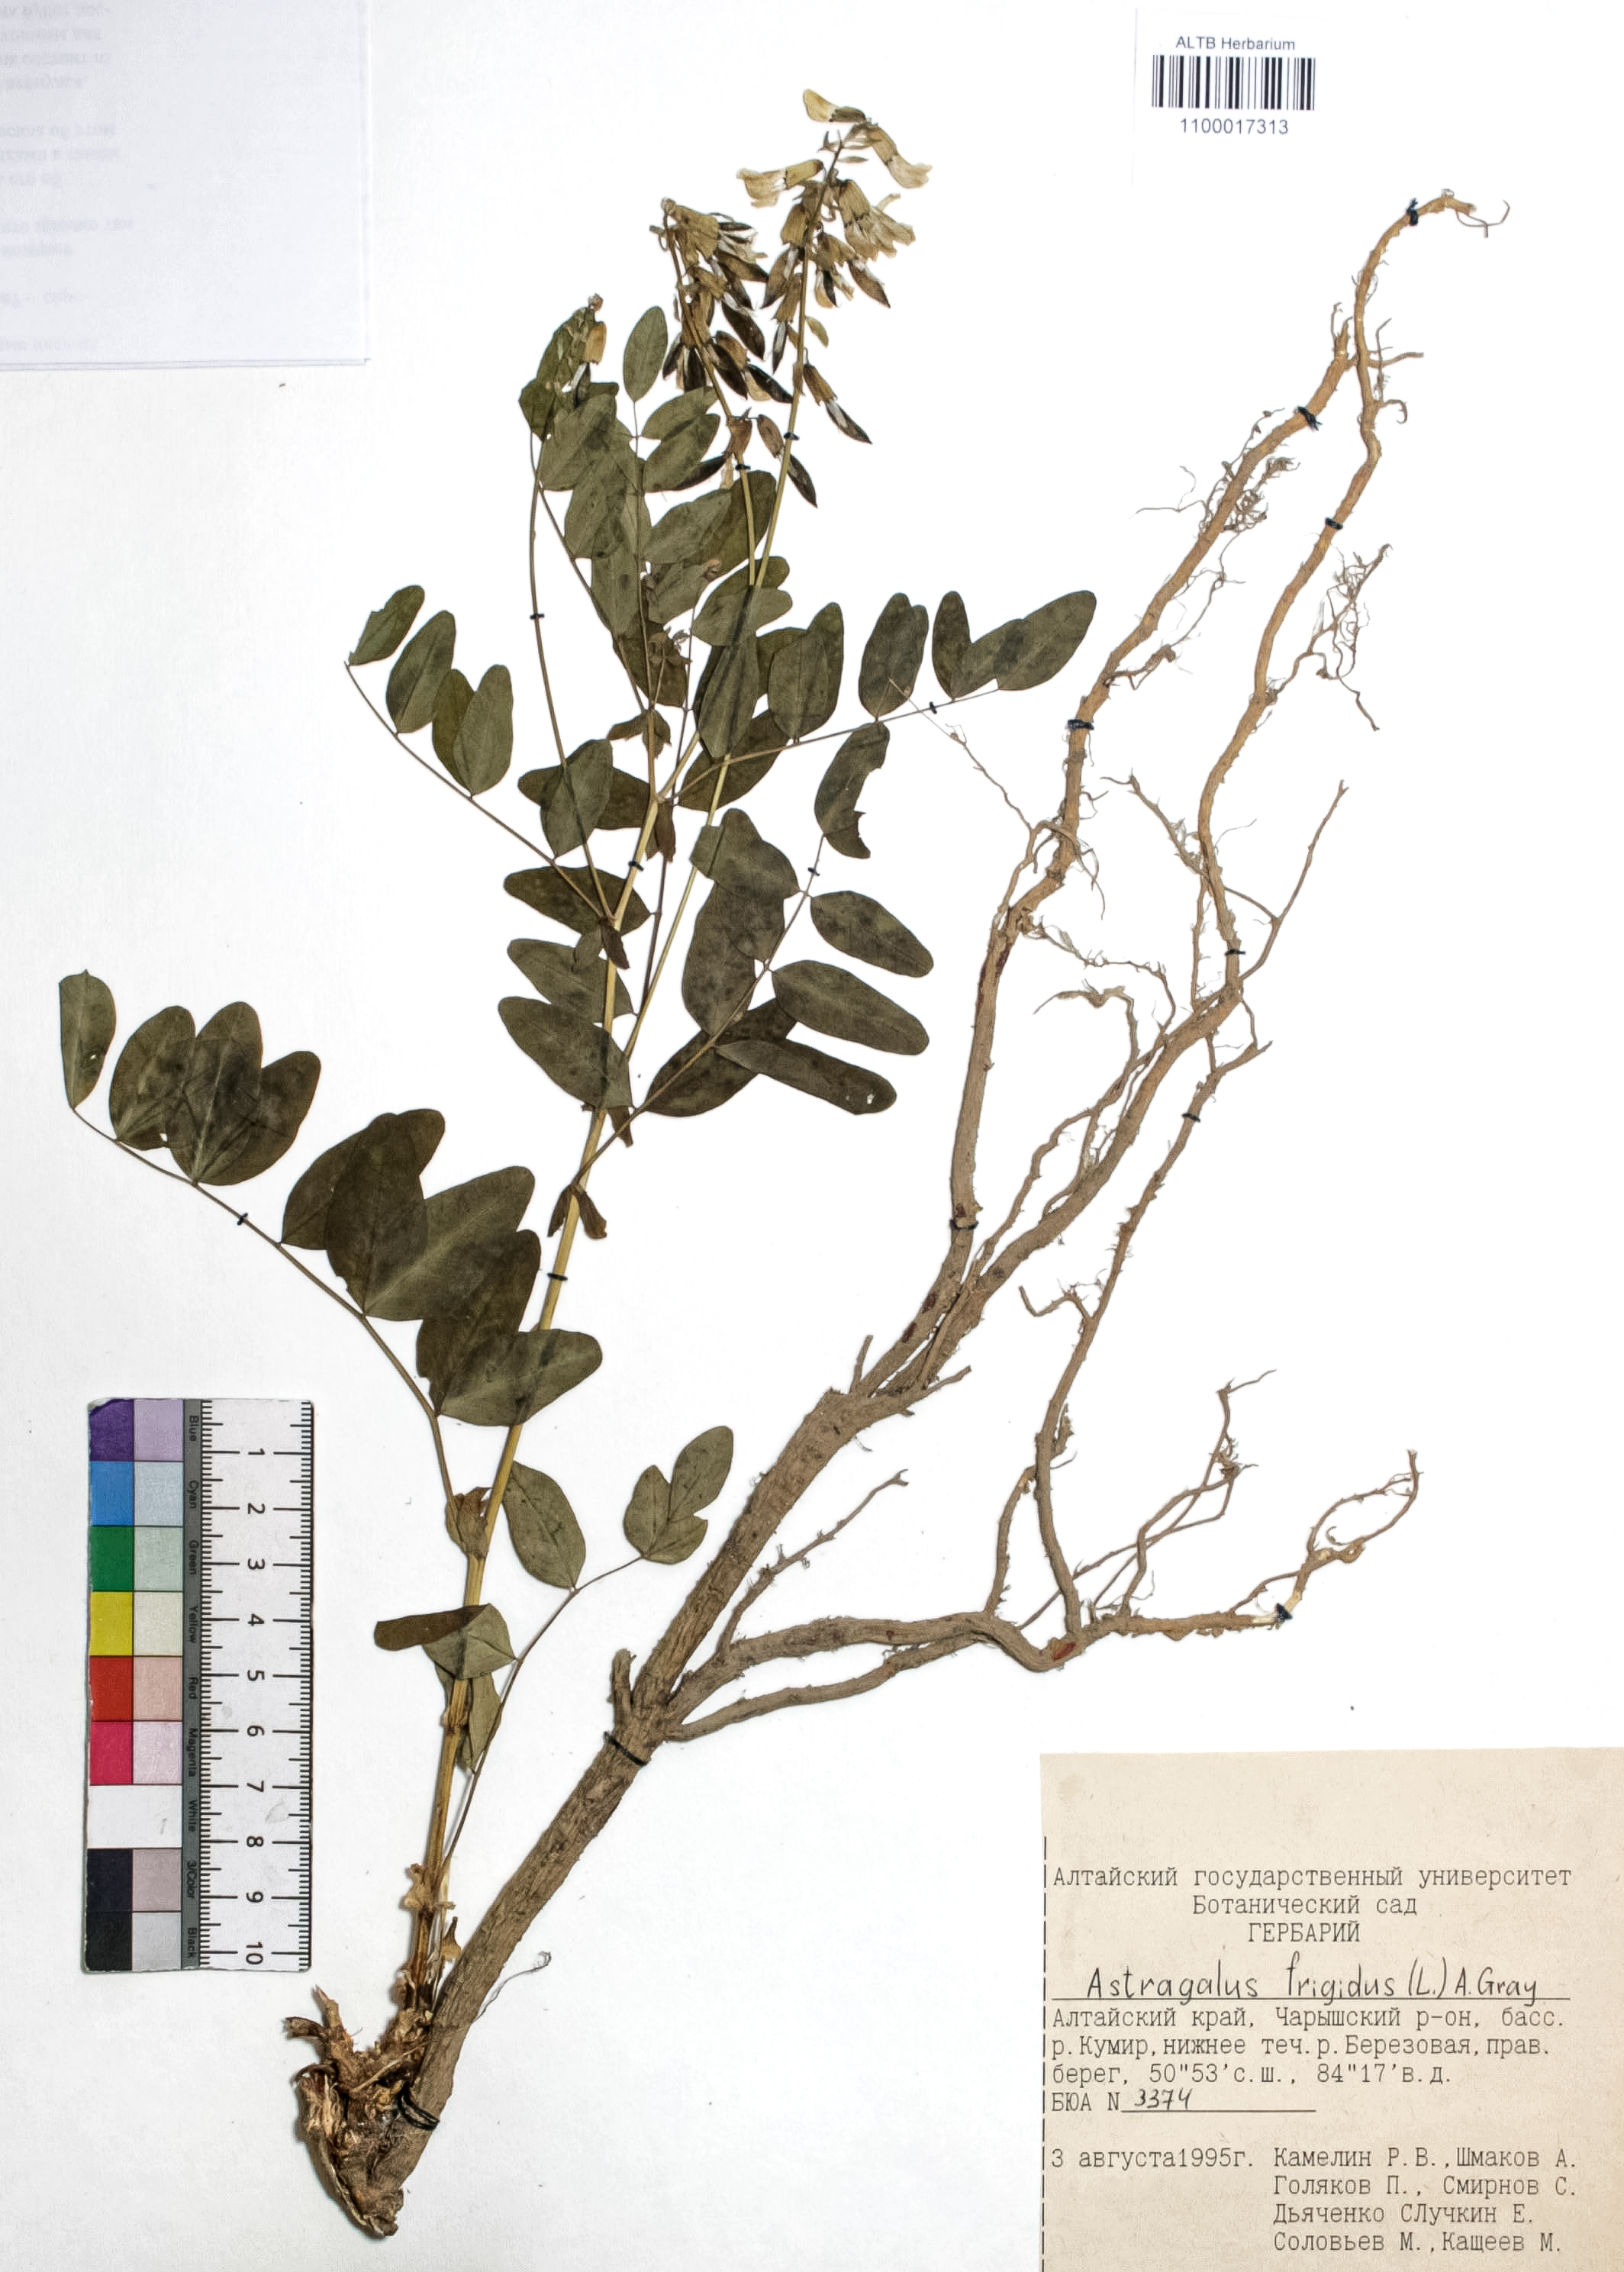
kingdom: Plantae
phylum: Tracheophyta
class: Magnoliopsida
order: Fabales
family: Fabaceae
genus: Astragalus
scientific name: Astragalus frigidus
